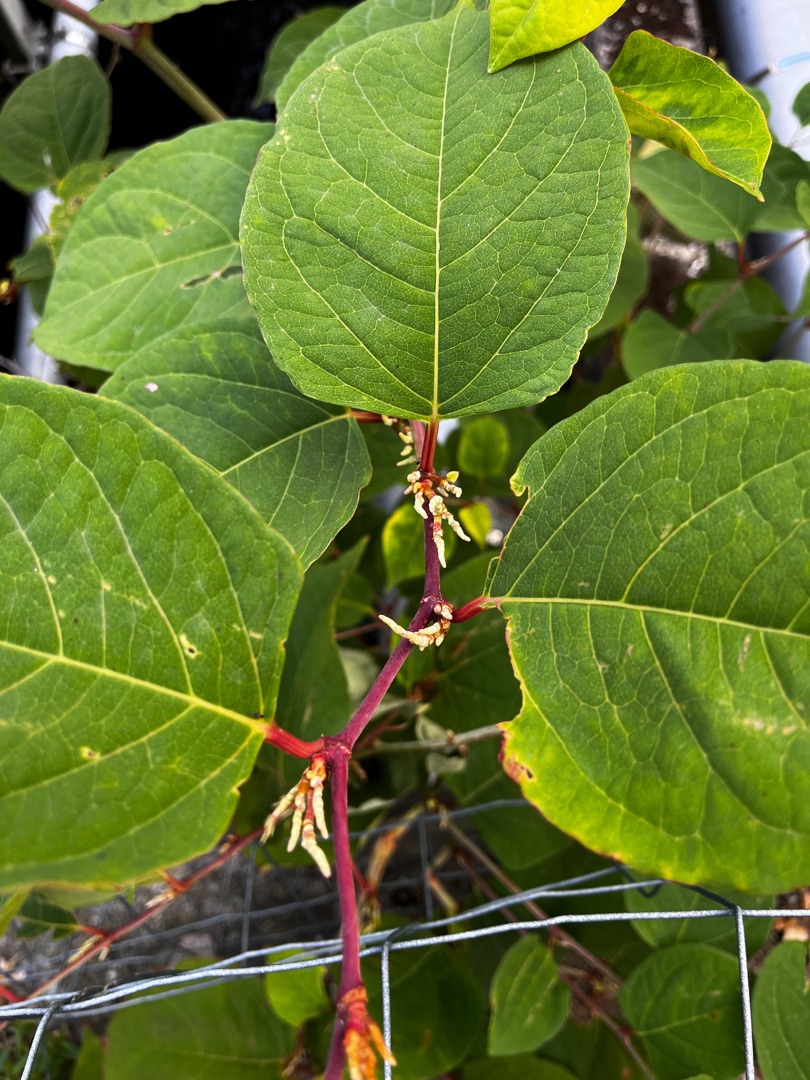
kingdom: Plantae
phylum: Tracheophyta
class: Magnoliopsida
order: Caryophyllales
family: Polygonaceae
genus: Reynoutria
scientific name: Reynoutria japonica
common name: Japan-pileurt
